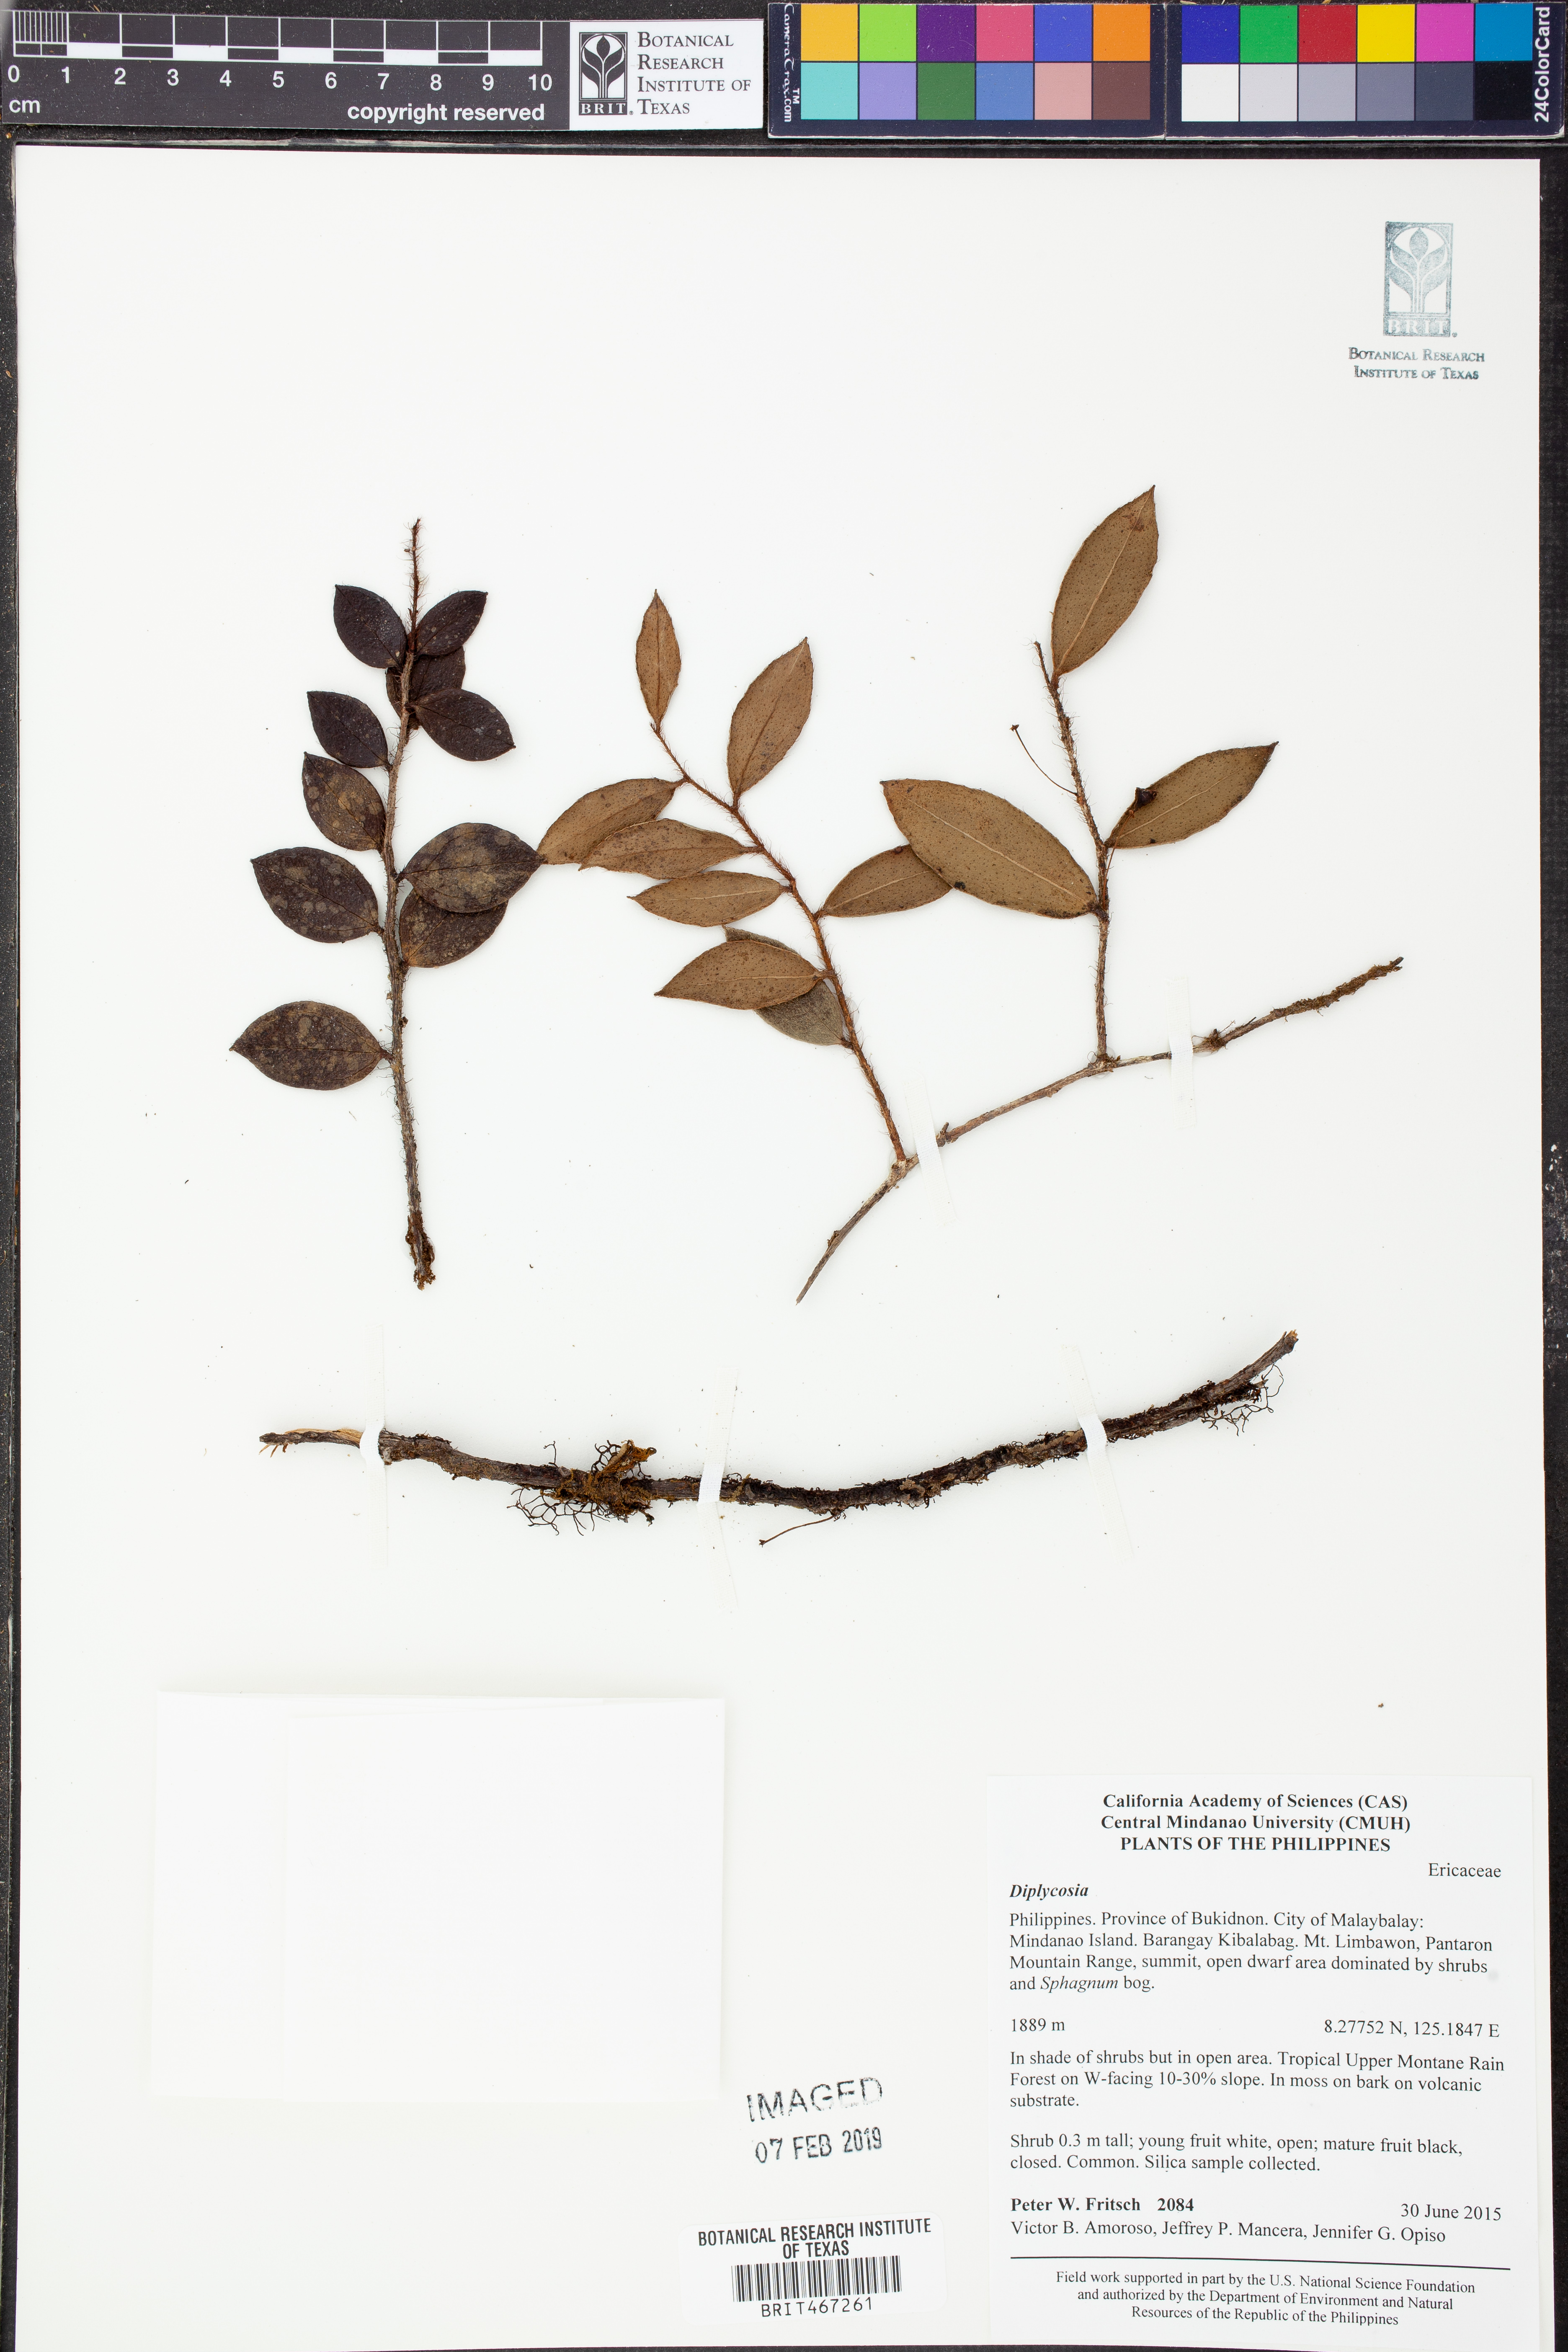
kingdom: Plantae
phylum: Tracheophyta
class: Magnoliopsida
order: Ericales
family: Ericaceae
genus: Gaultheria
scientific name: Gaultheria
